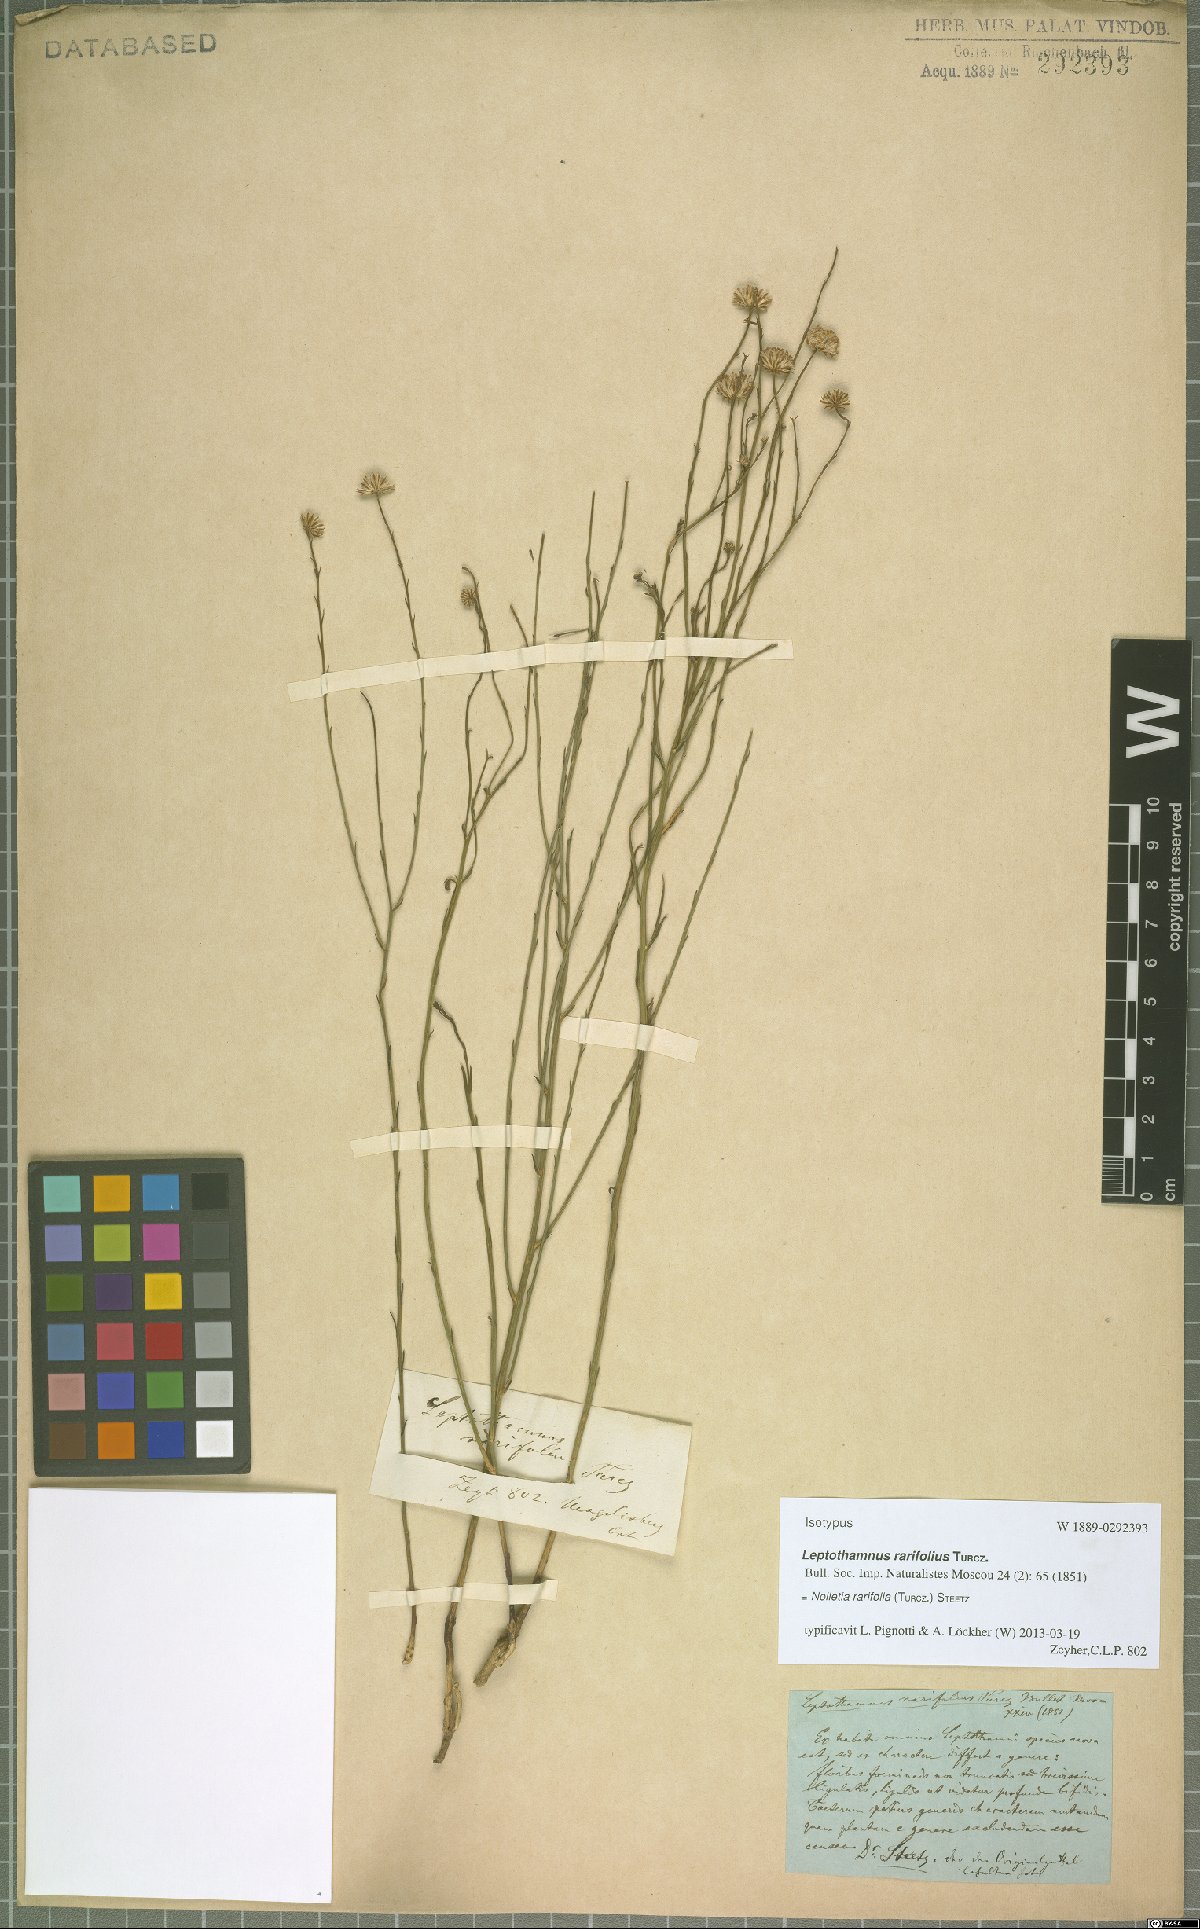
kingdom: Plantae
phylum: Tracheophyta
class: Magnoliopsida
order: Asterales
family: Asteraceae
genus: Nolletia
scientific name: Nolletia rarifolia
